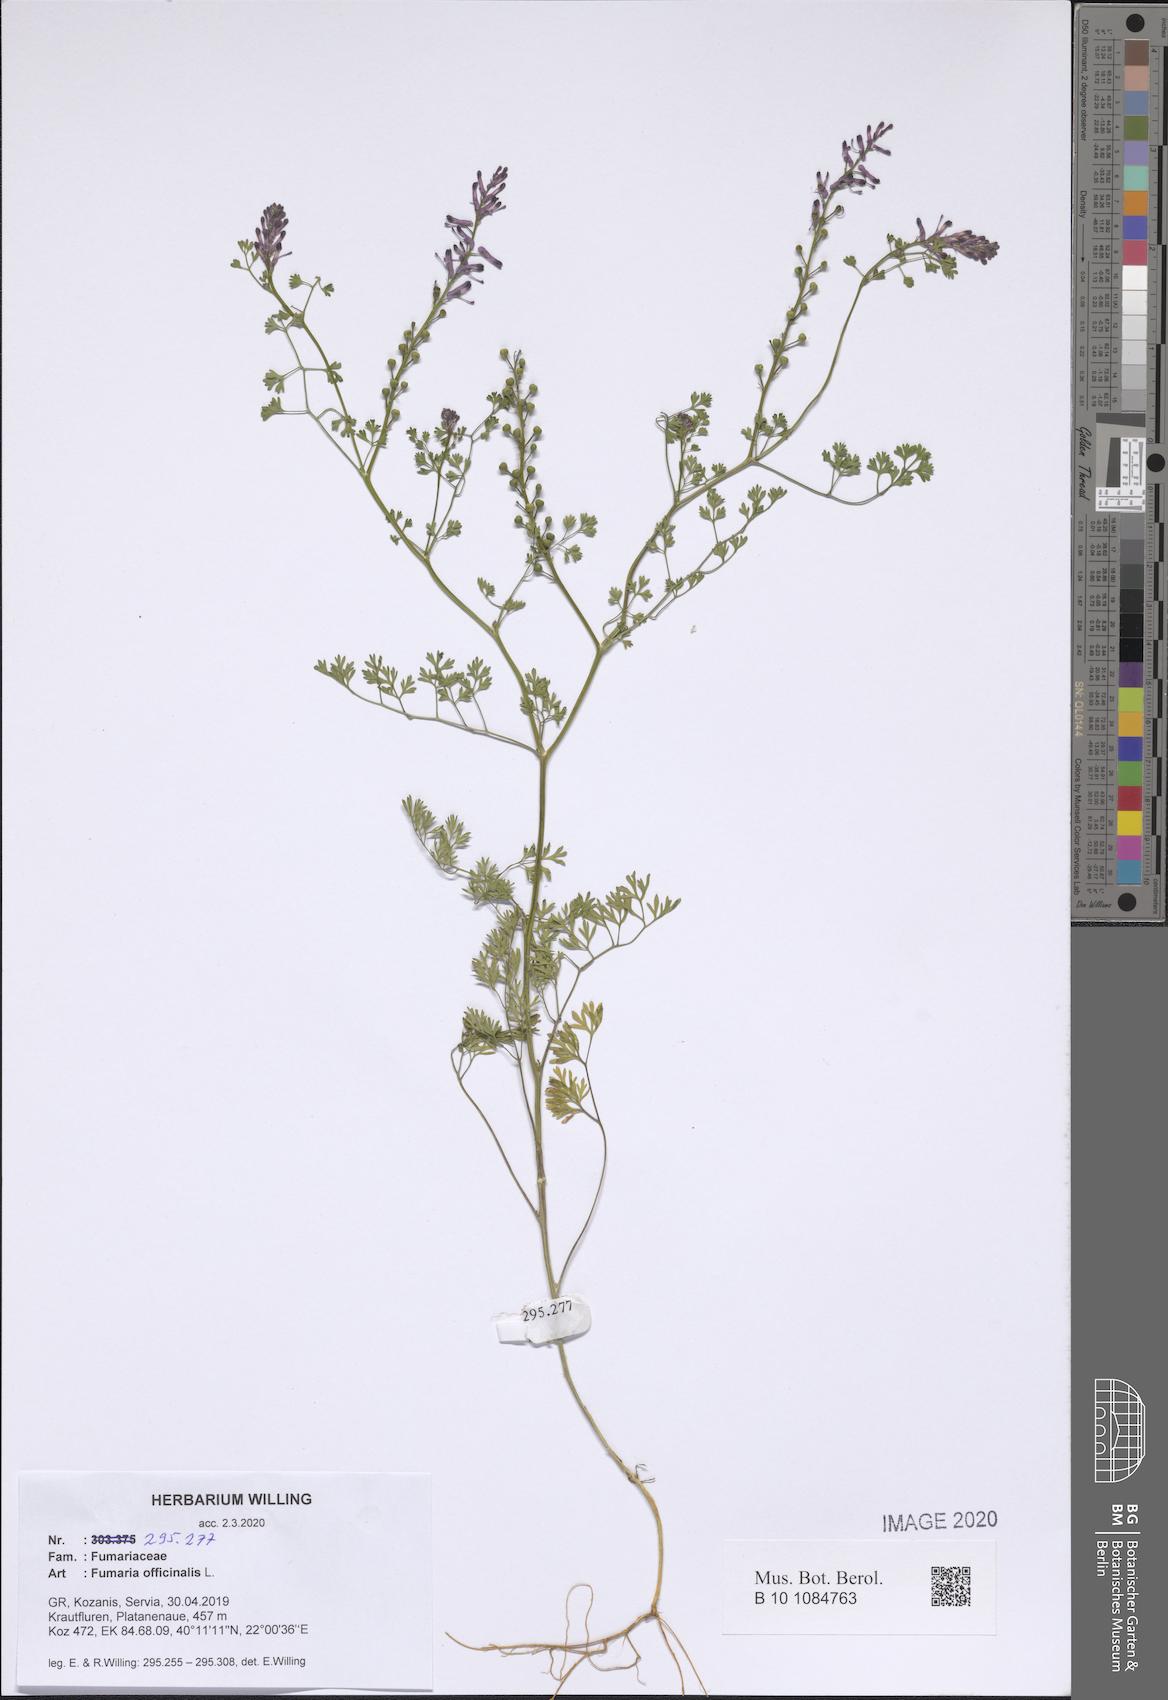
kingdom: Plantae
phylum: Tracheophyta
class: Magnoliopsida
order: Ranunculales
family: Papaveraceae
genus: Fumaria
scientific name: Fumaria officinalis
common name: Common fumitory
